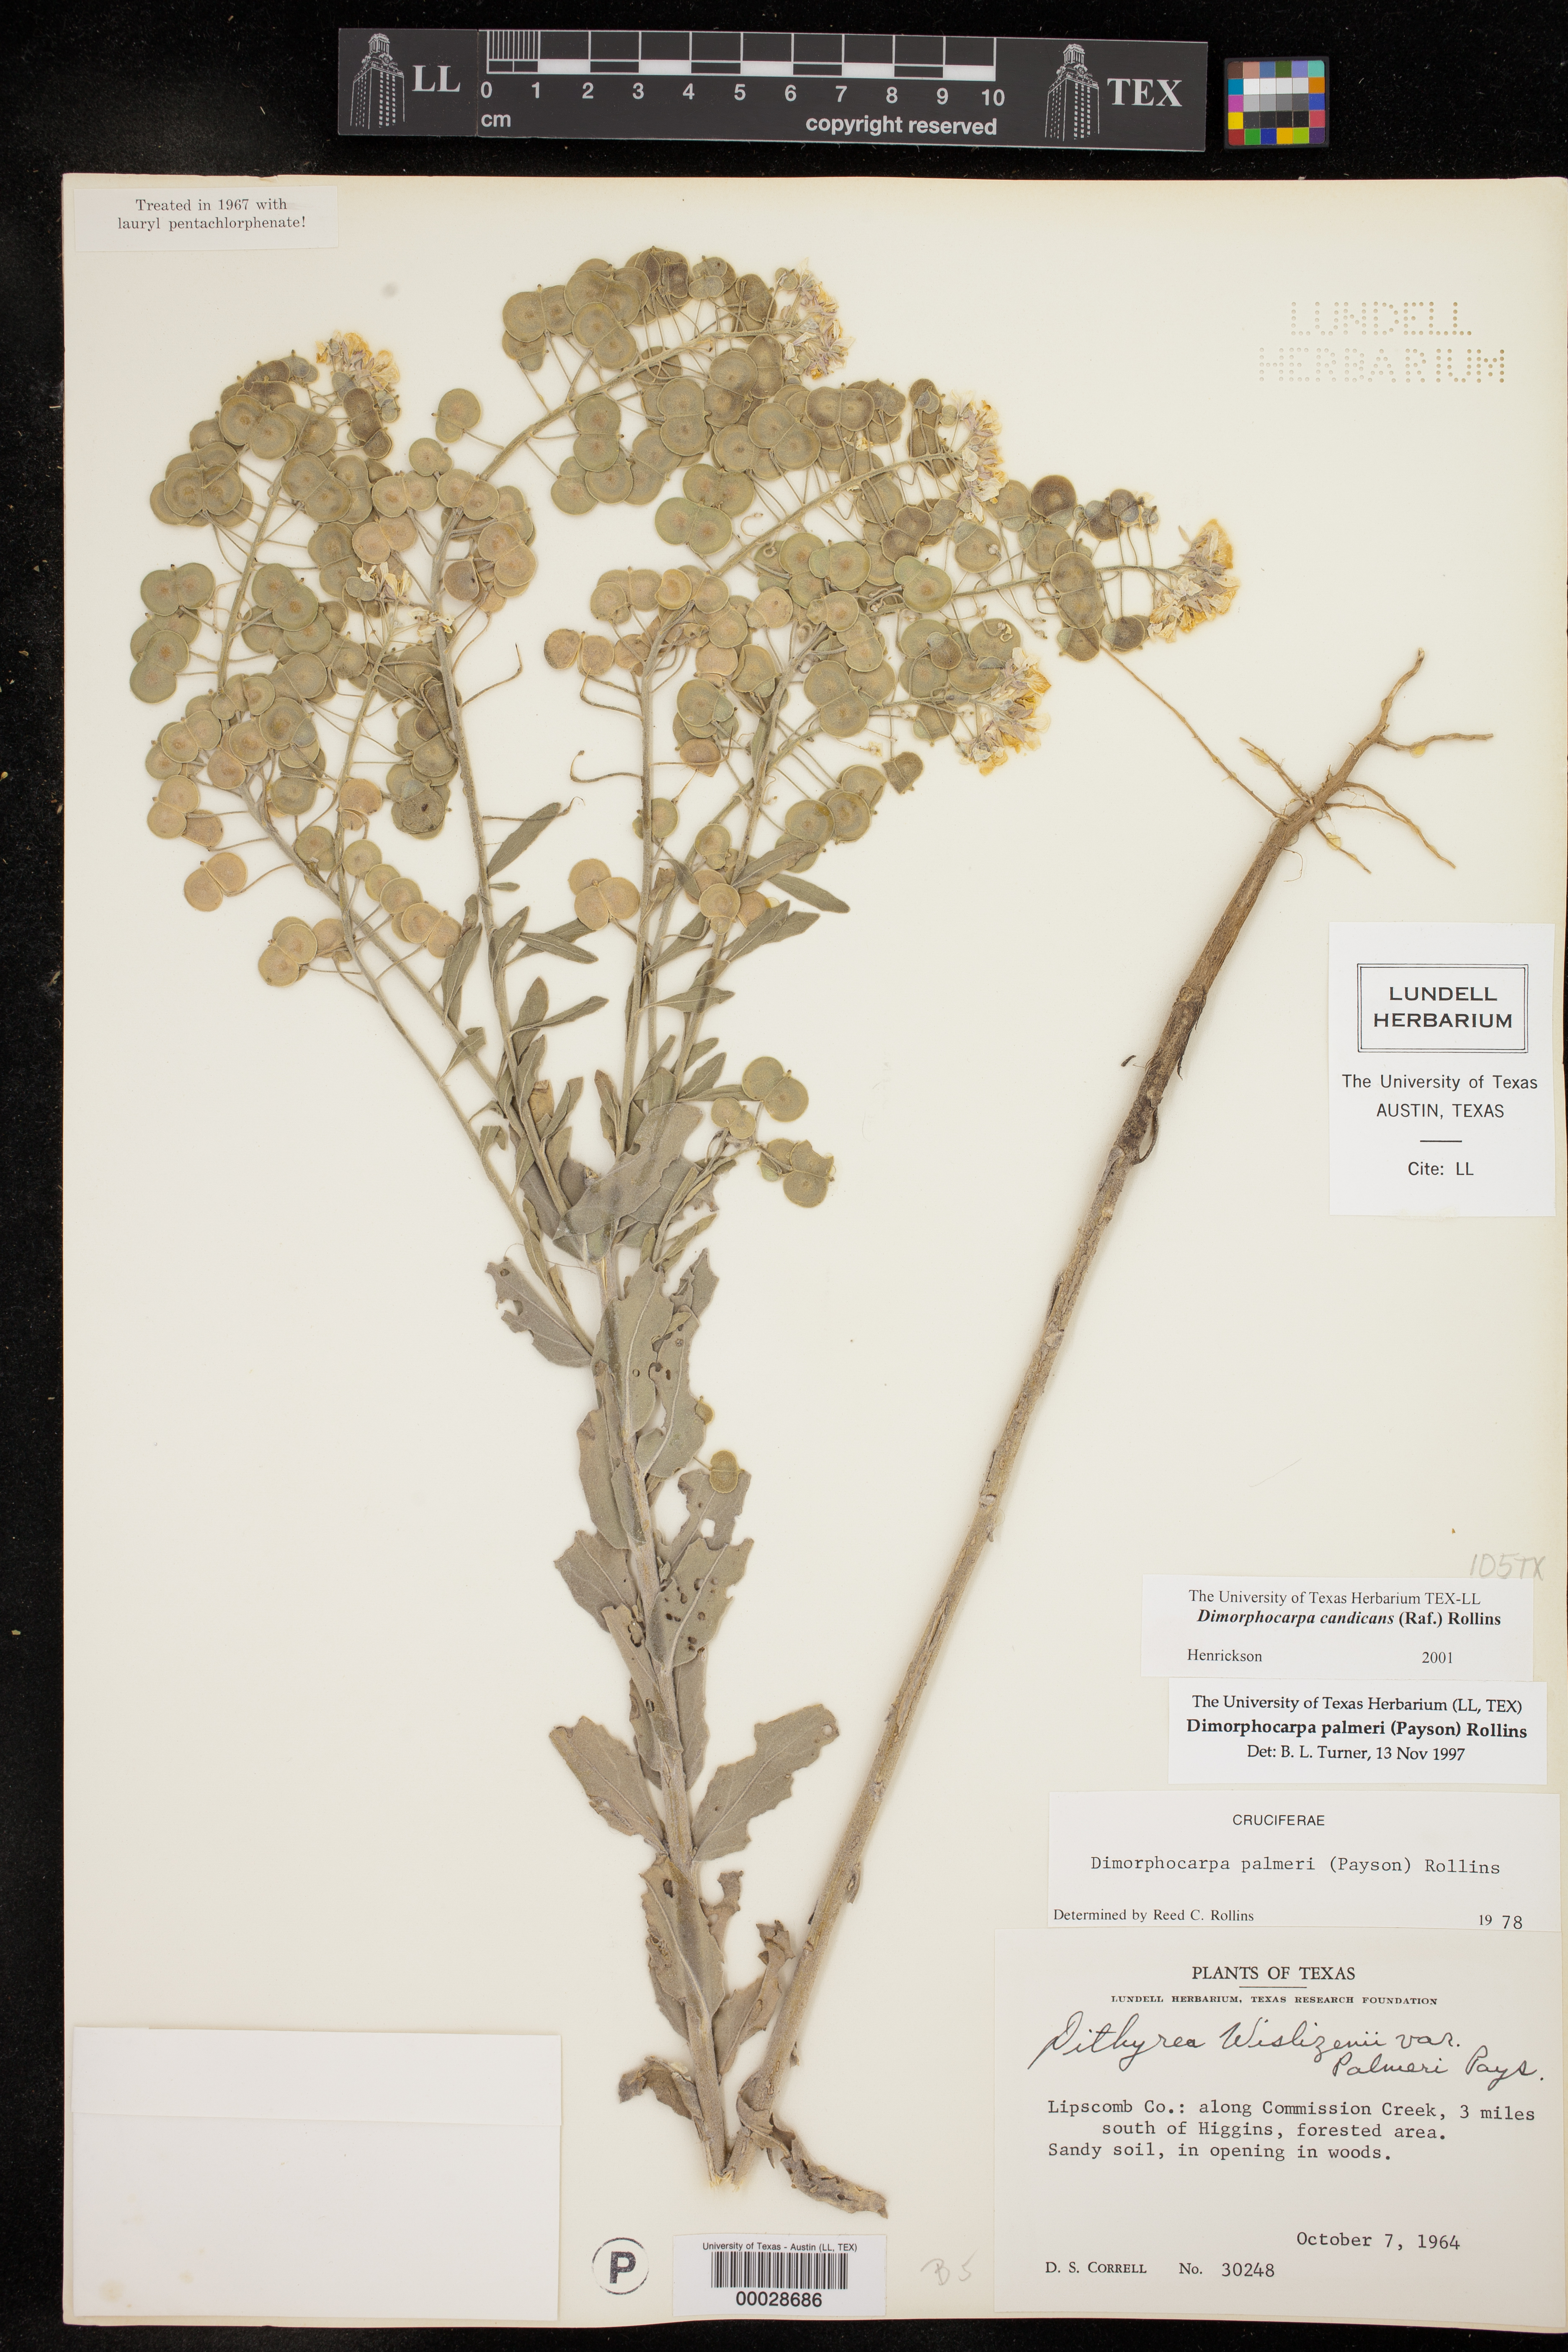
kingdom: Plantae
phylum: Tracheophyta
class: Magnoliopsida
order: Brassicales
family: Brassicaceae
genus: Dimorphocarpa
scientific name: Dimorphocarpa candicans
